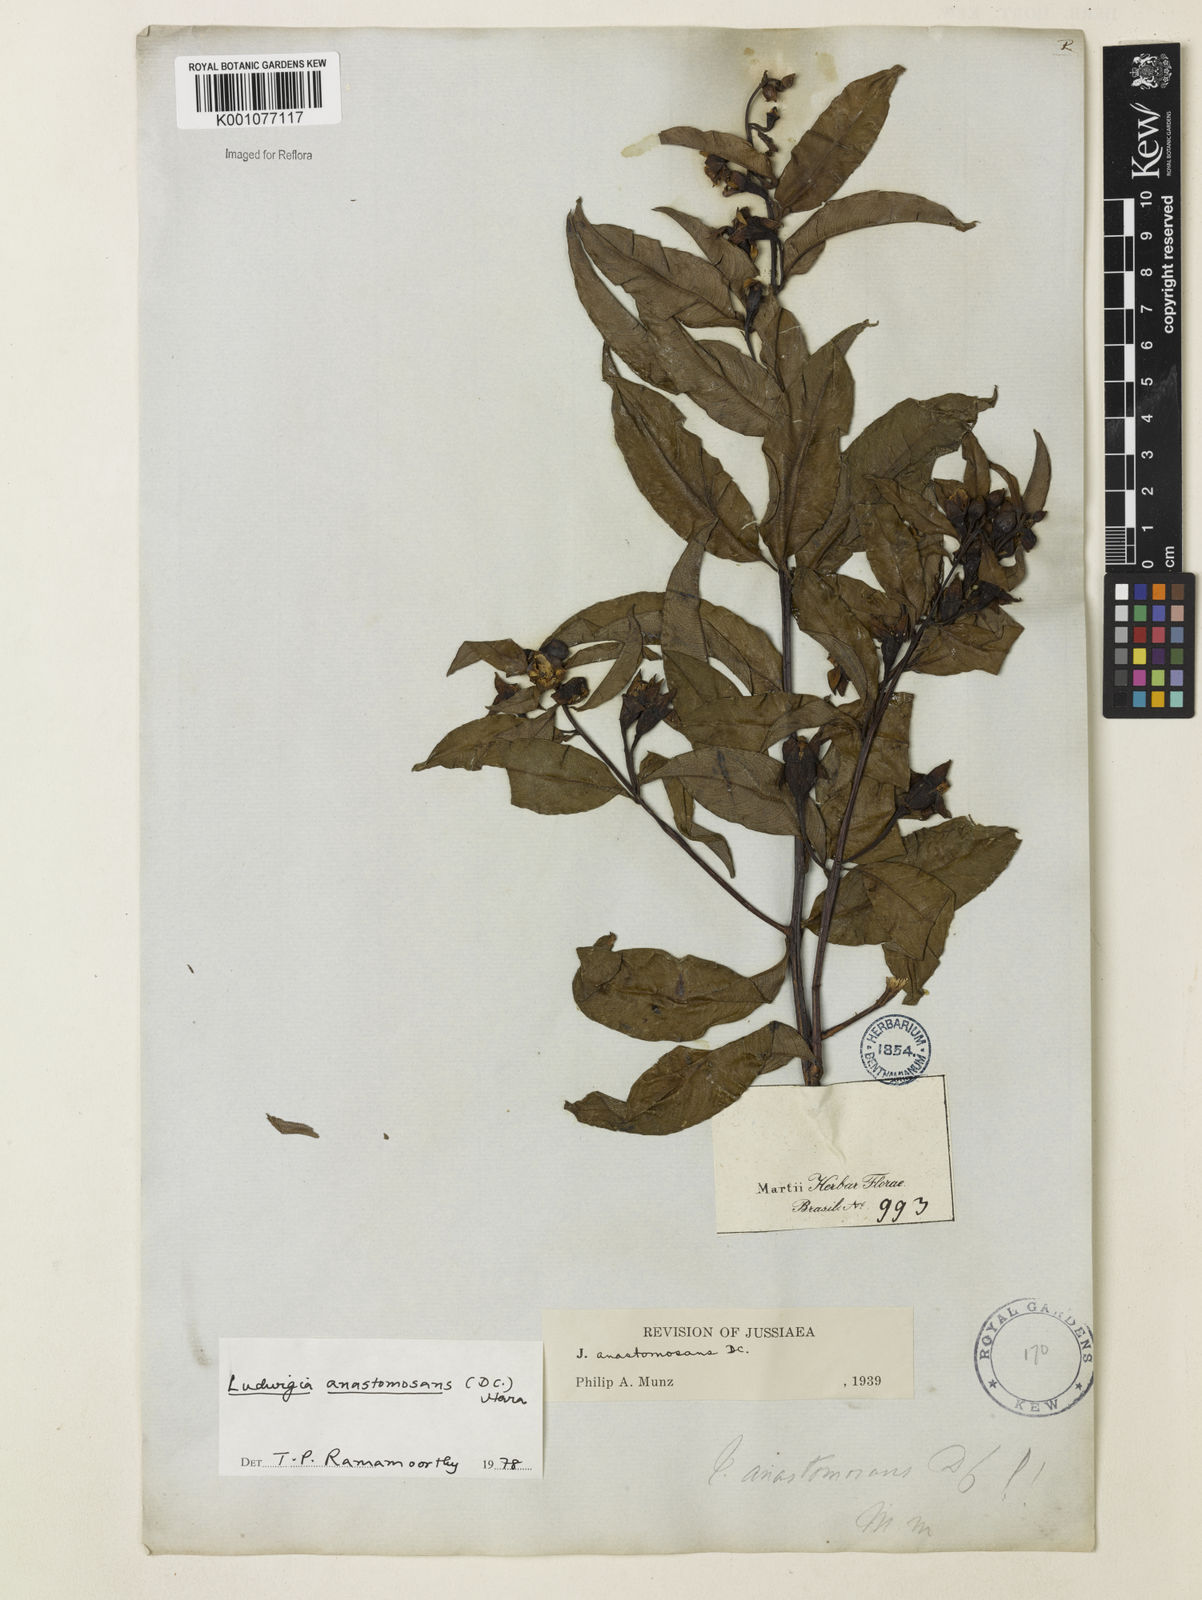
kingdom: Plantae
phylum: Tracheophyta
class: Magnoliopsida
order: Myrtales
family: Onagraceae
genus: Ludwigia
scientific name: Ludwigia anastomosans
